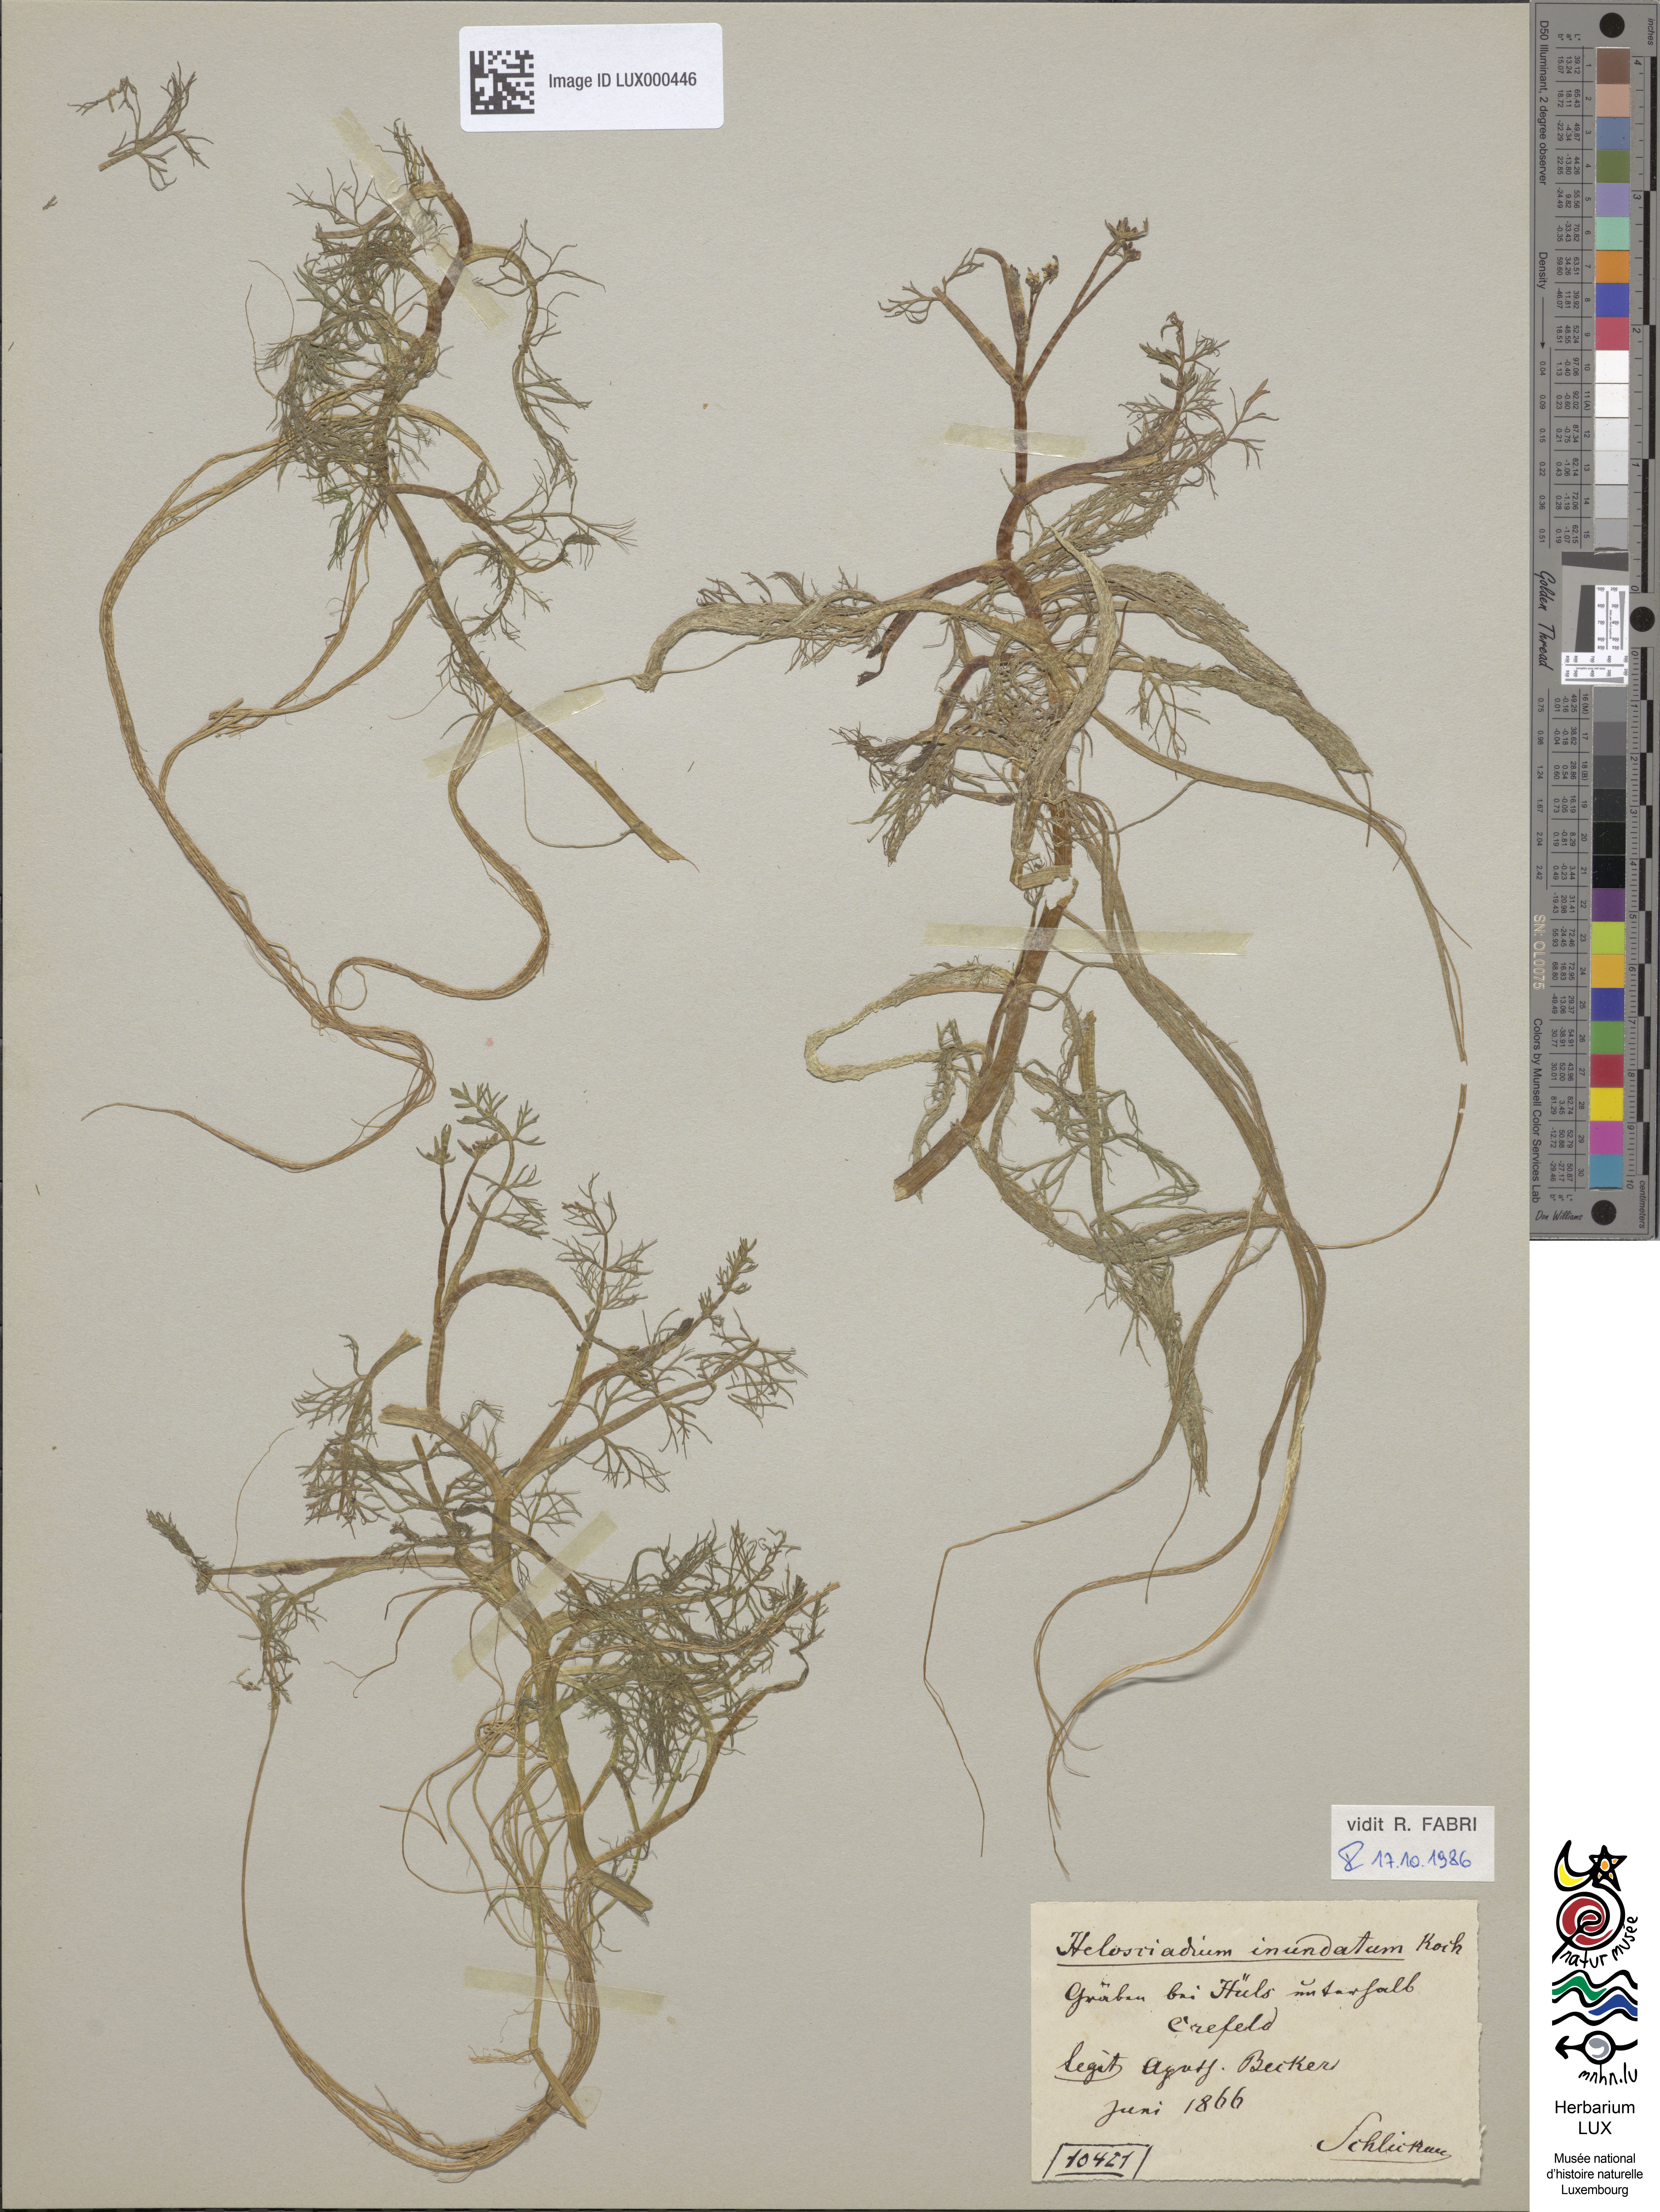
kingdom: Plantae
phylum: Tracheophyta
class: Magnoliopsida
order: Apiales
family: Apiaceae
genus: Helosciadium
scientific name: Helosciadium inundatum
